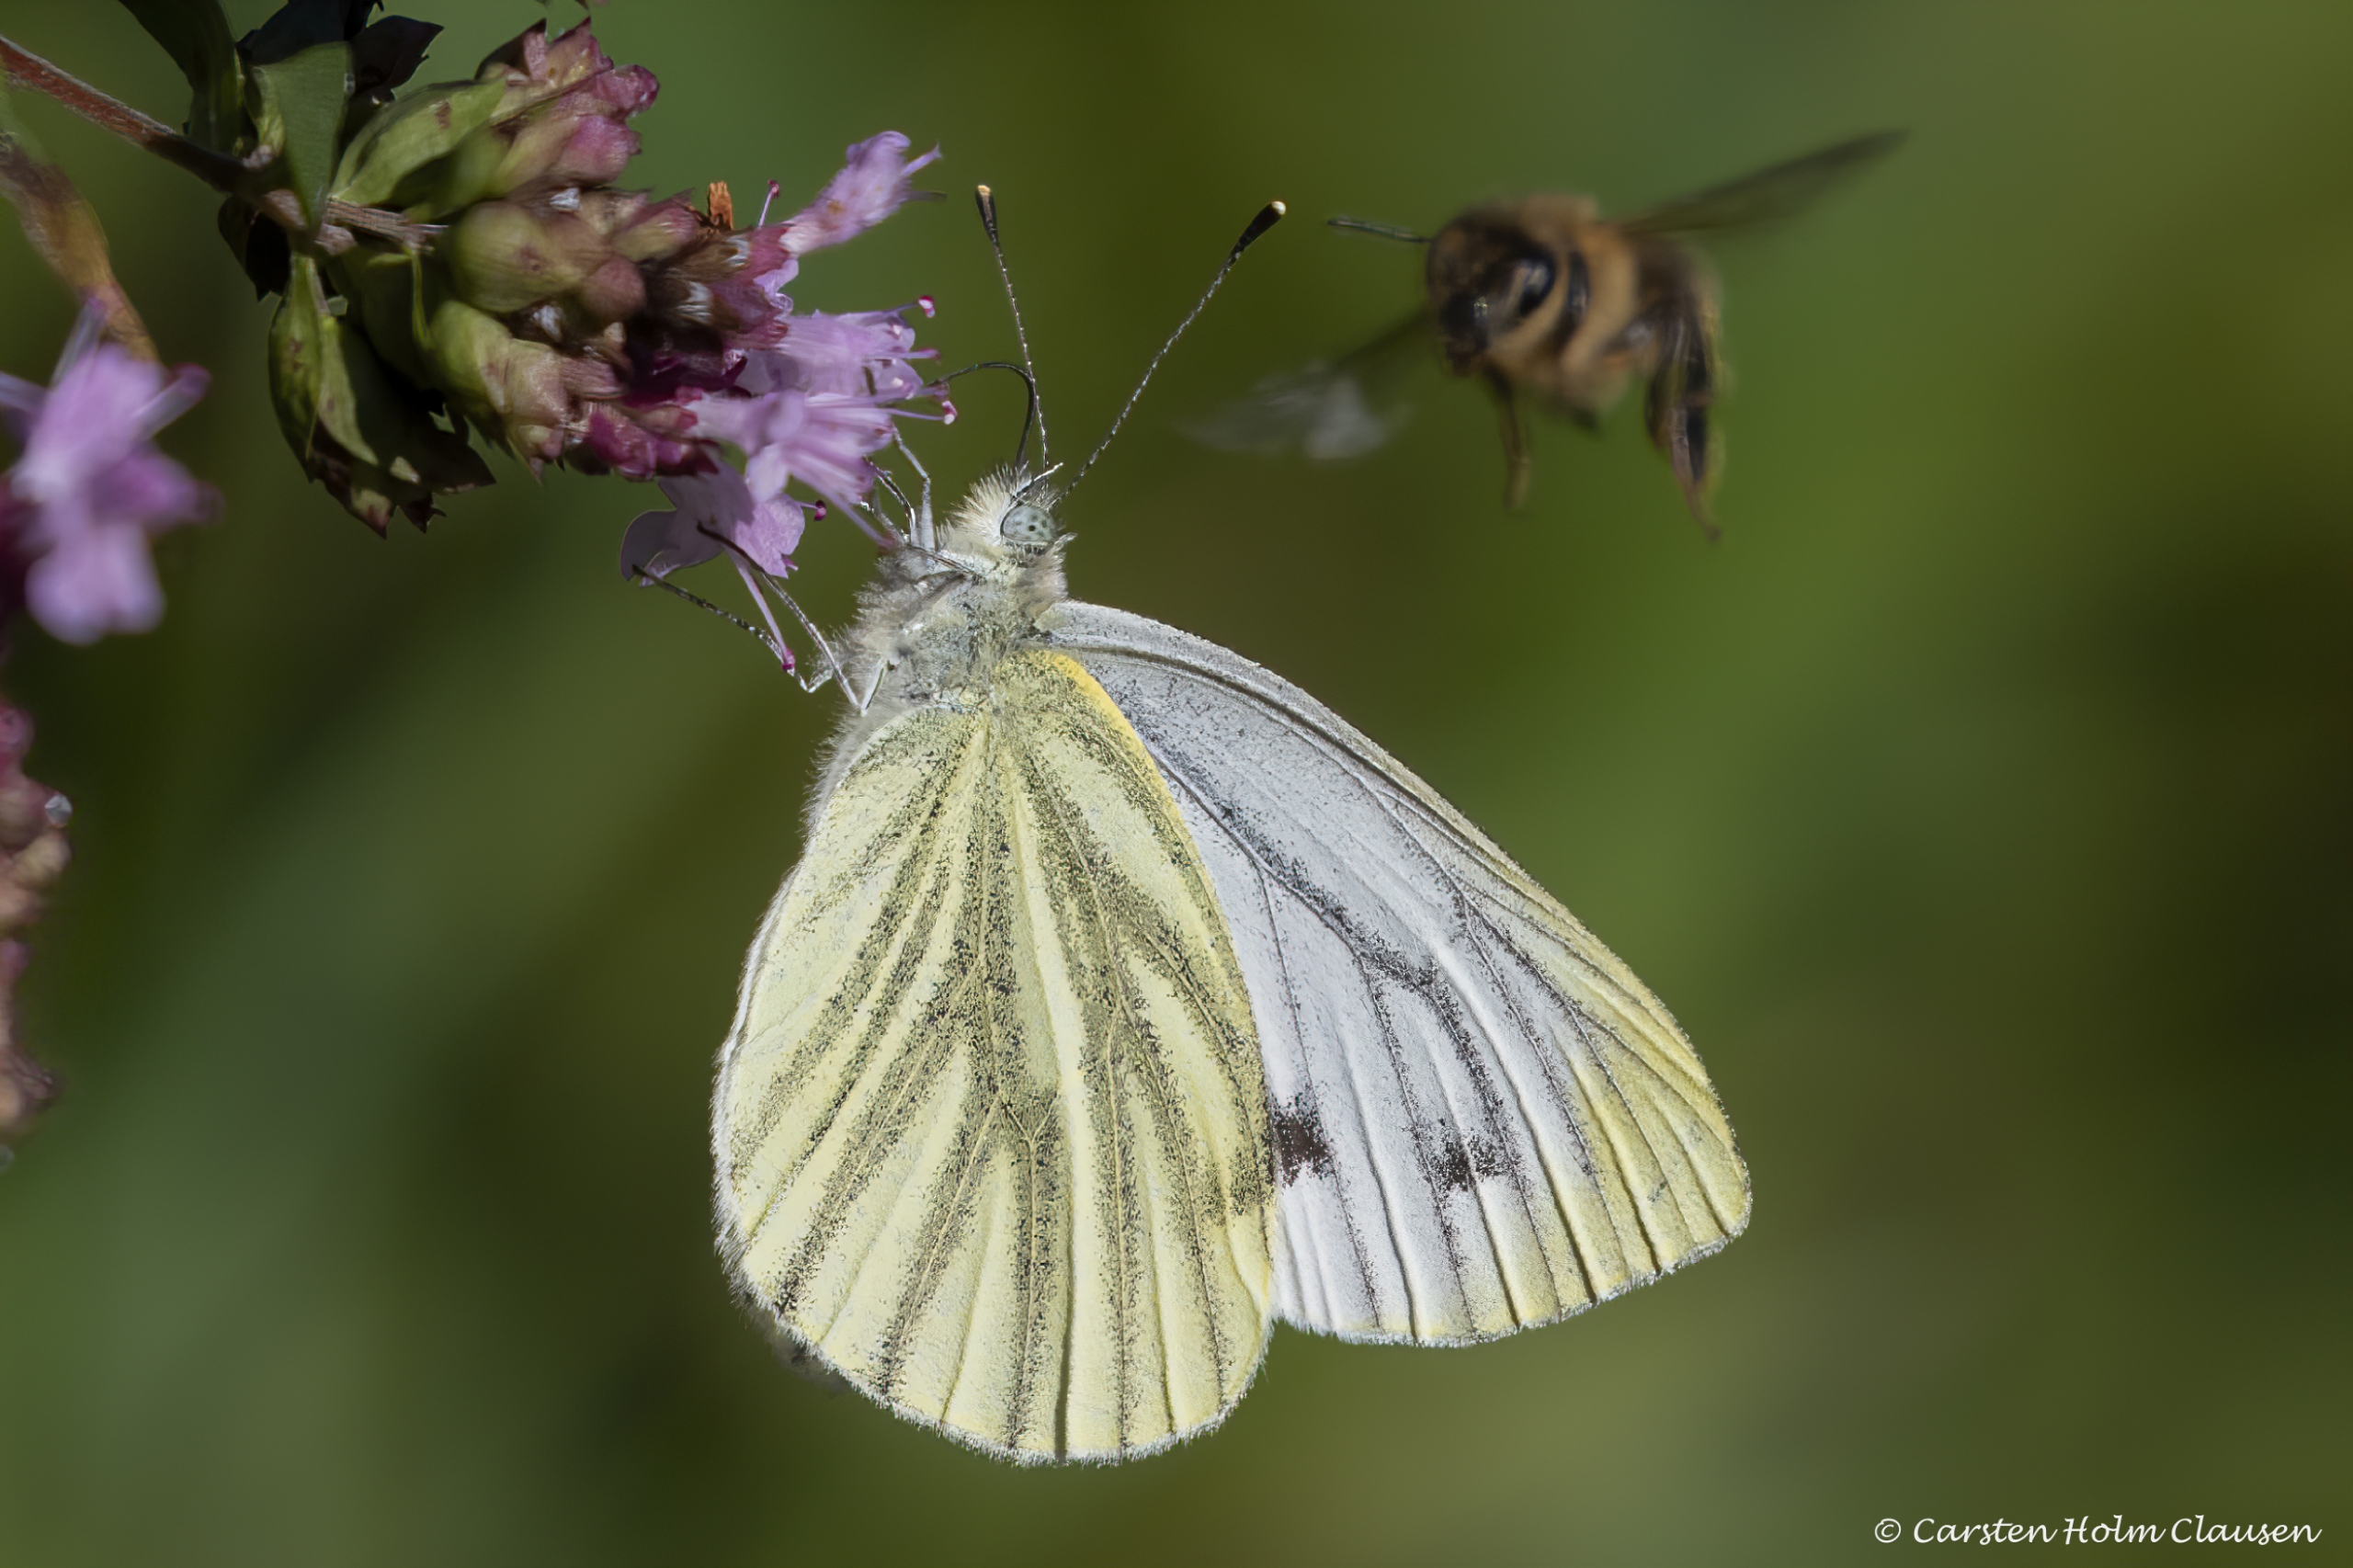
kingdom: Animalia
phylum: Arthropoda
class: Insecta
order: Lepidoptera
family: Pieridae
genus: Pieris
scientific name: Pieris napi
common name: Grønåret kålsommerfugl
